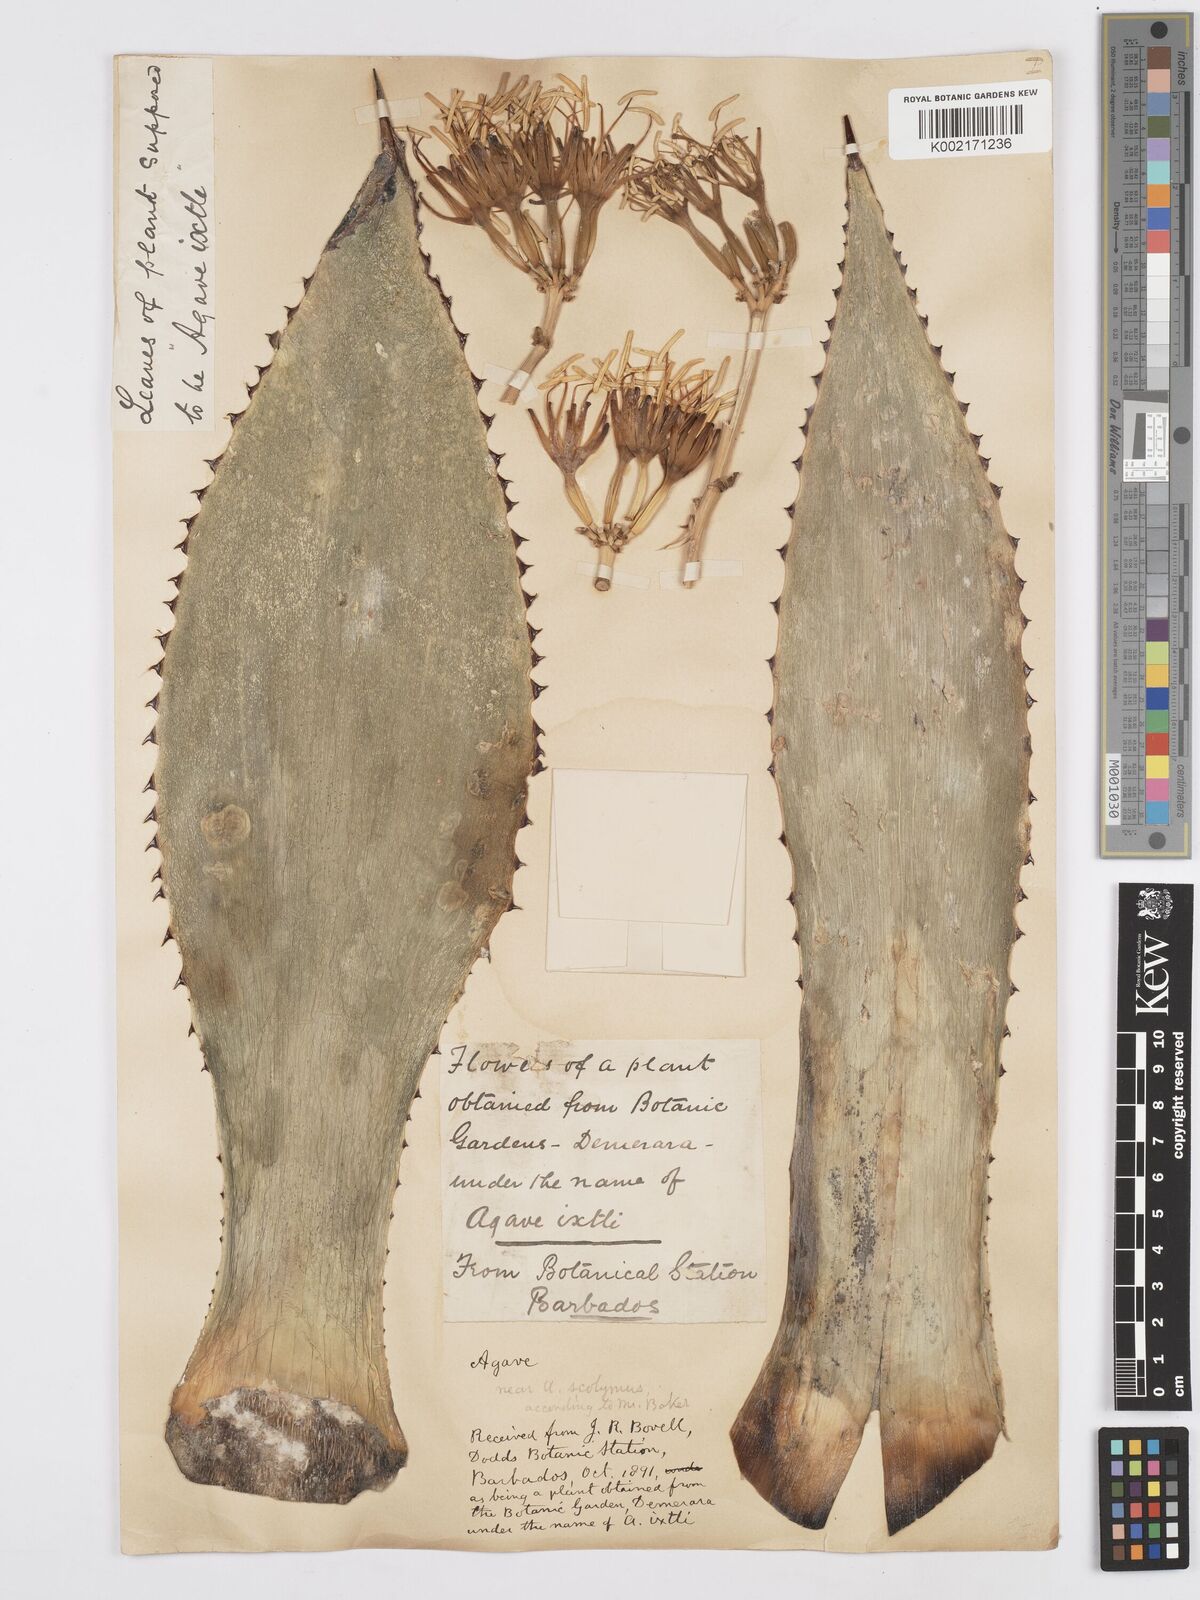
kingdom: Plantae
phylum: Tracheophyta
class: Liliopsida
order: Asparagales
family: Asparagaceae
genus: Agave
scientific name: Agave
